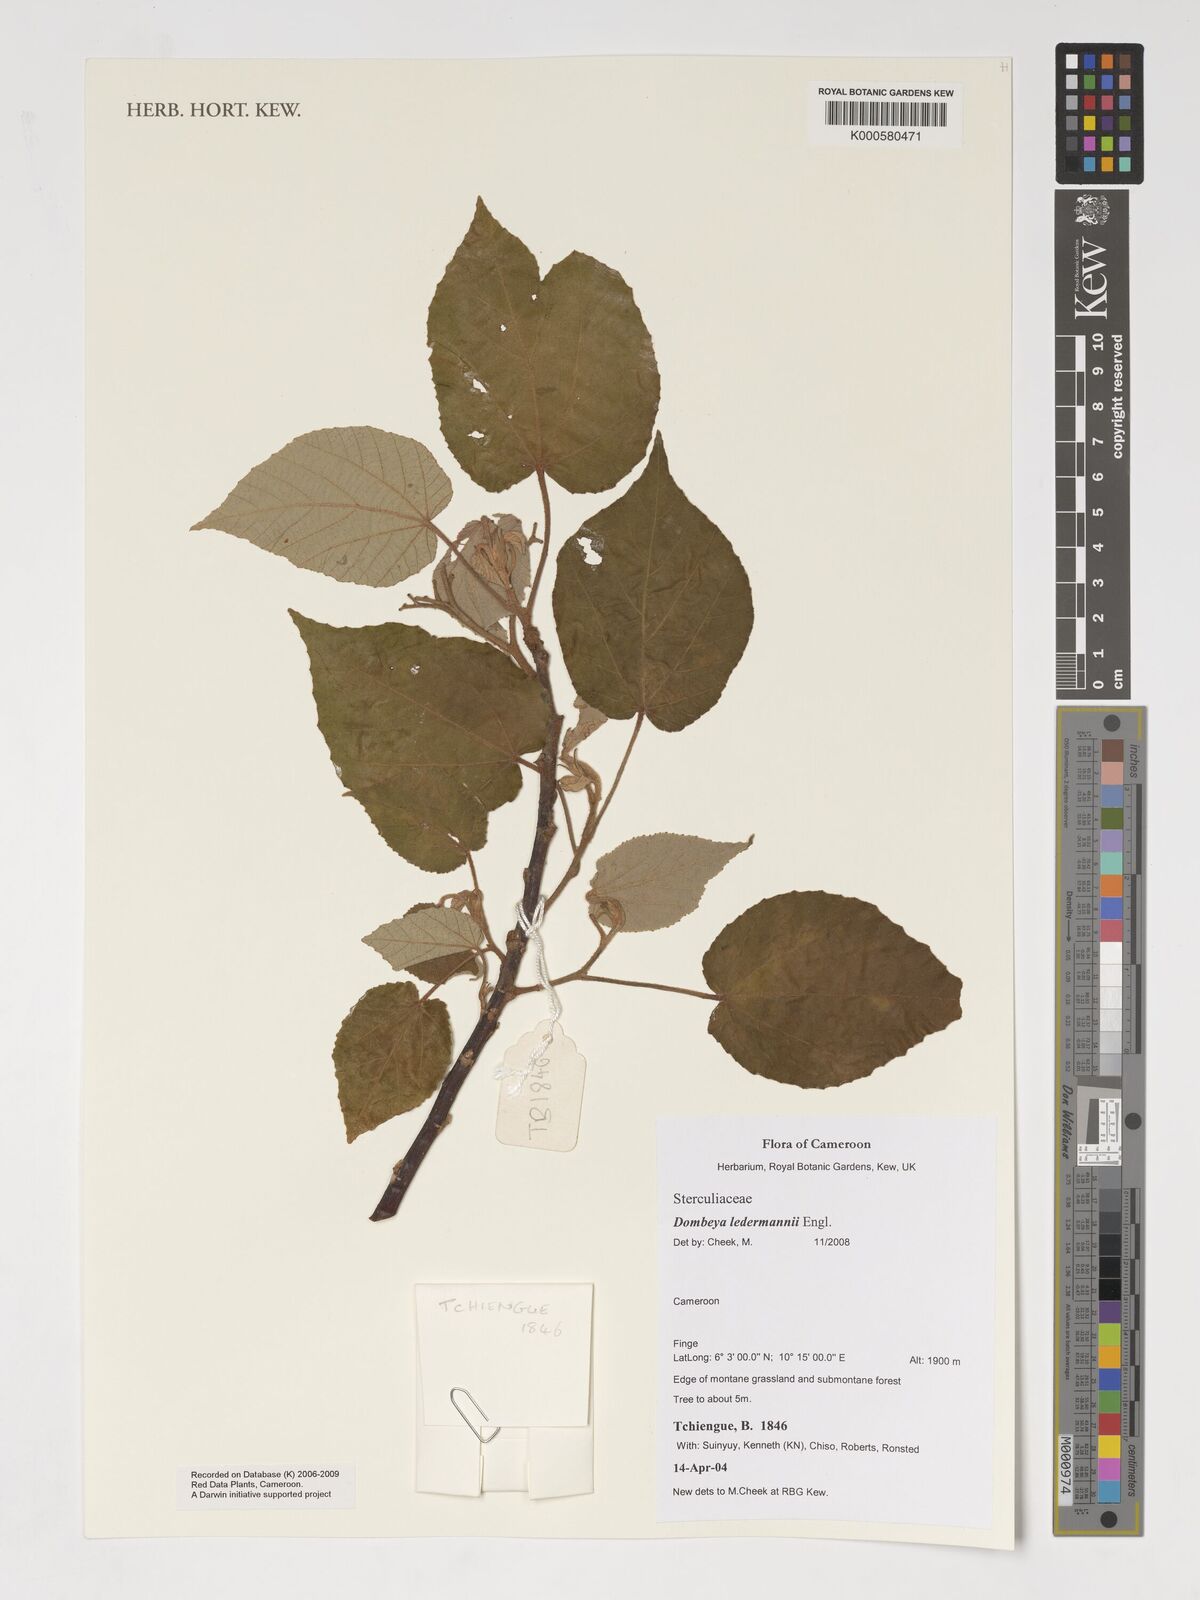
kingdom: Plantae
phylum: Tracheophyta
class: Magnoliopsida
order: Malvales
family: Malvaceae
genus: Dombeya
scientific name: Dombeya ledermannii
